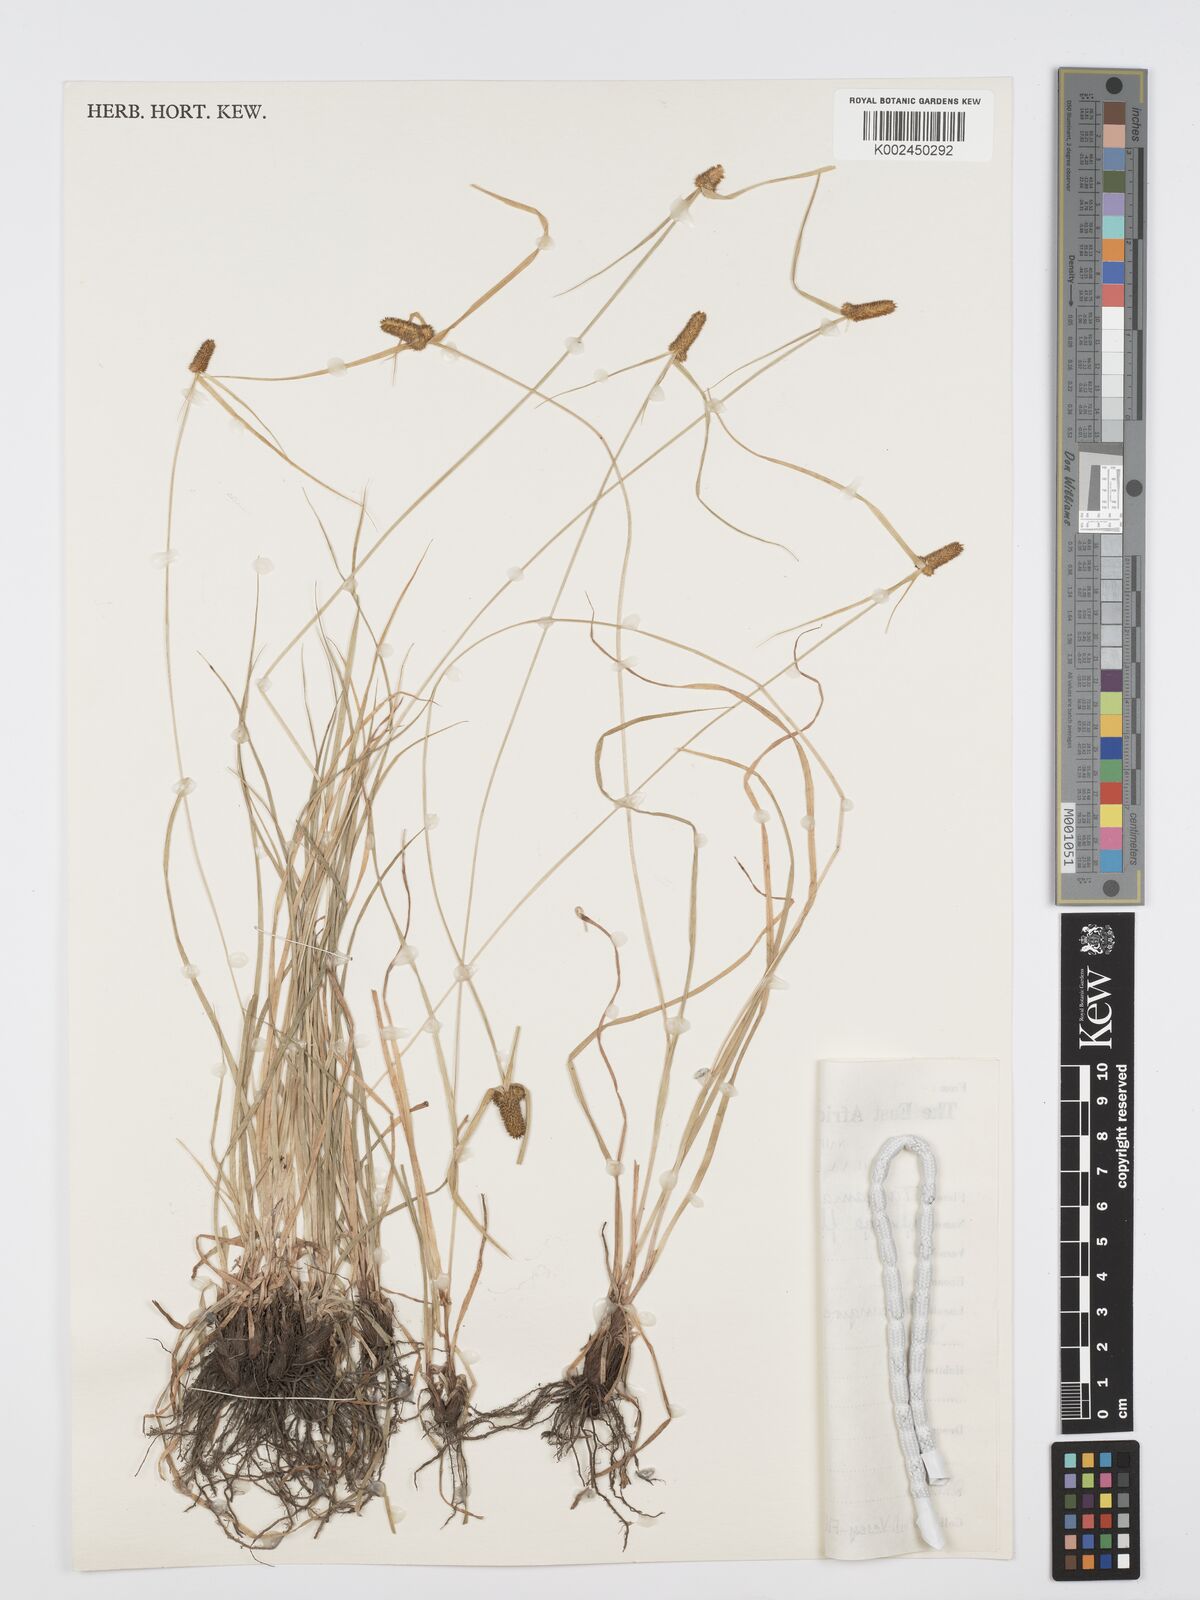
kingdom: Plantae
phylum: Tracheophyta
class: Liliopsida
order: Poales
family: Cyperaceae
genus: Cyperus
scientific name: Cyperus
